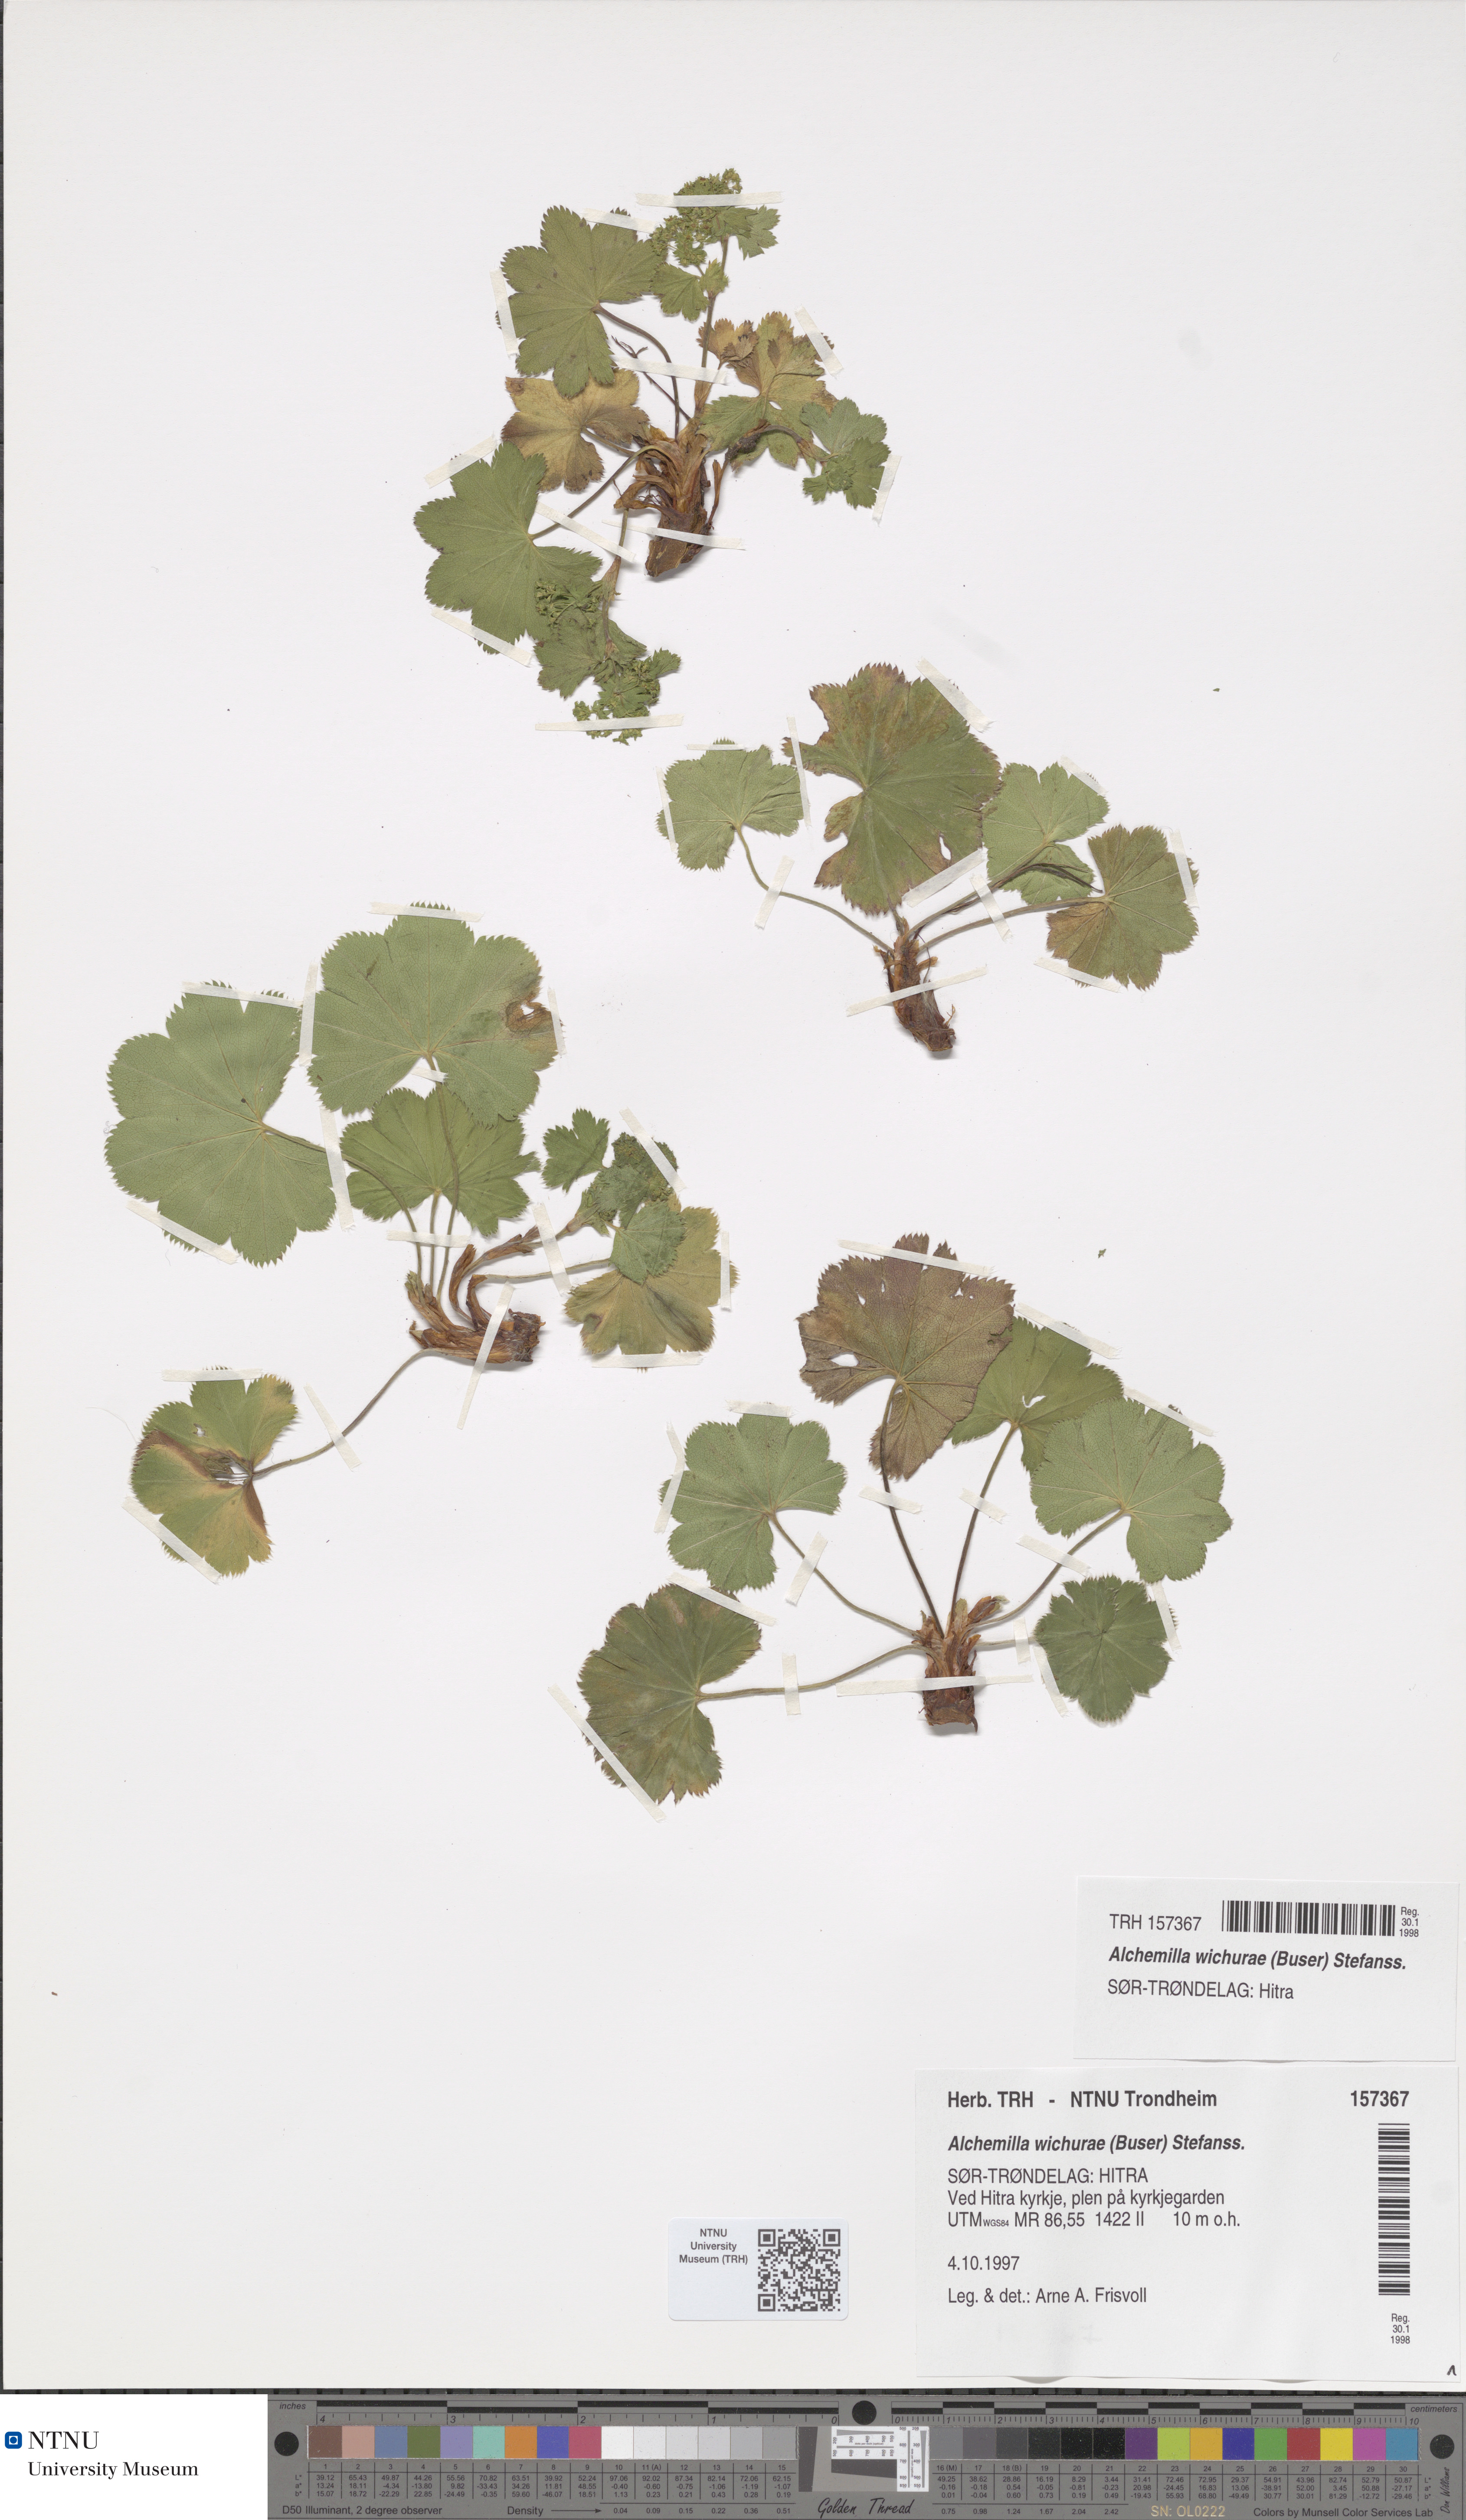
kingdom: Plantae
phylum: Tracheophyta
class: Magnoliopsida
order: Rosales
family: Rosaceae
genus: Alchemilla
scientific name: Alchemilla wichurae
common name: Rock lady's mantle
